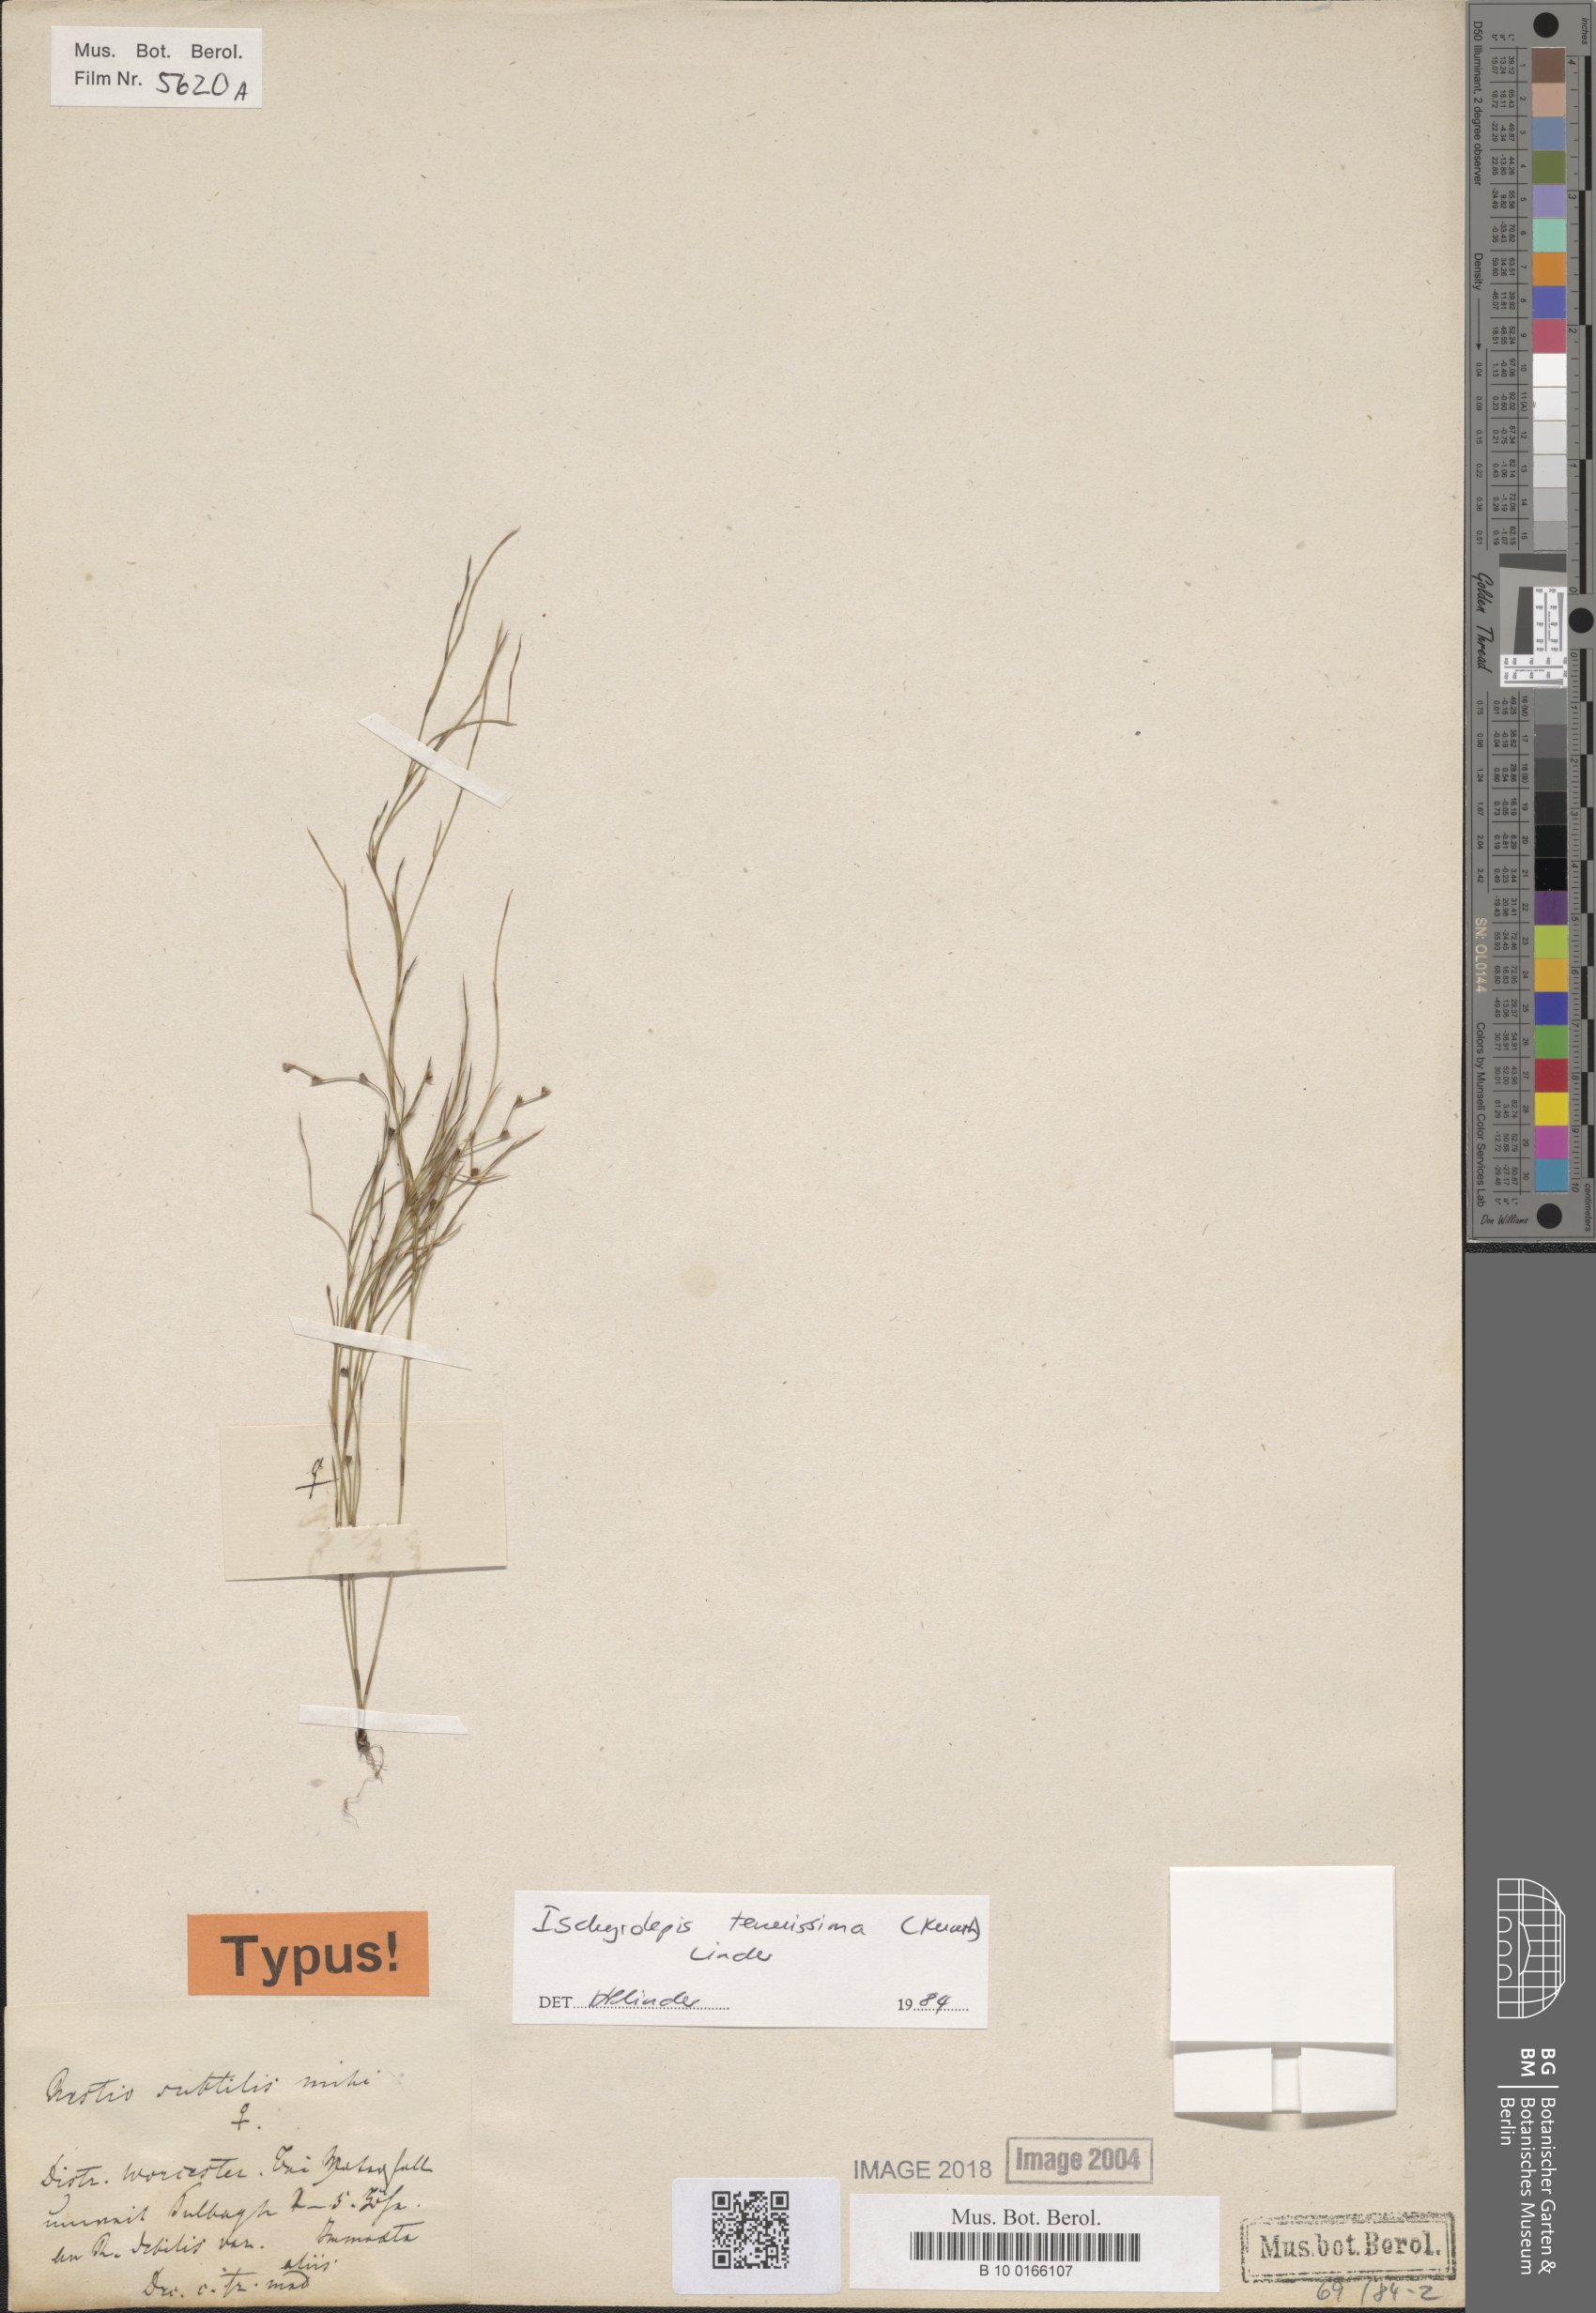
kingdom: Plantae
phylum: Tracheophyta
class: Liliopsida
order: Poales
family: Restionaceae
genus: Restio
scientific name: Restio tenuissimus
